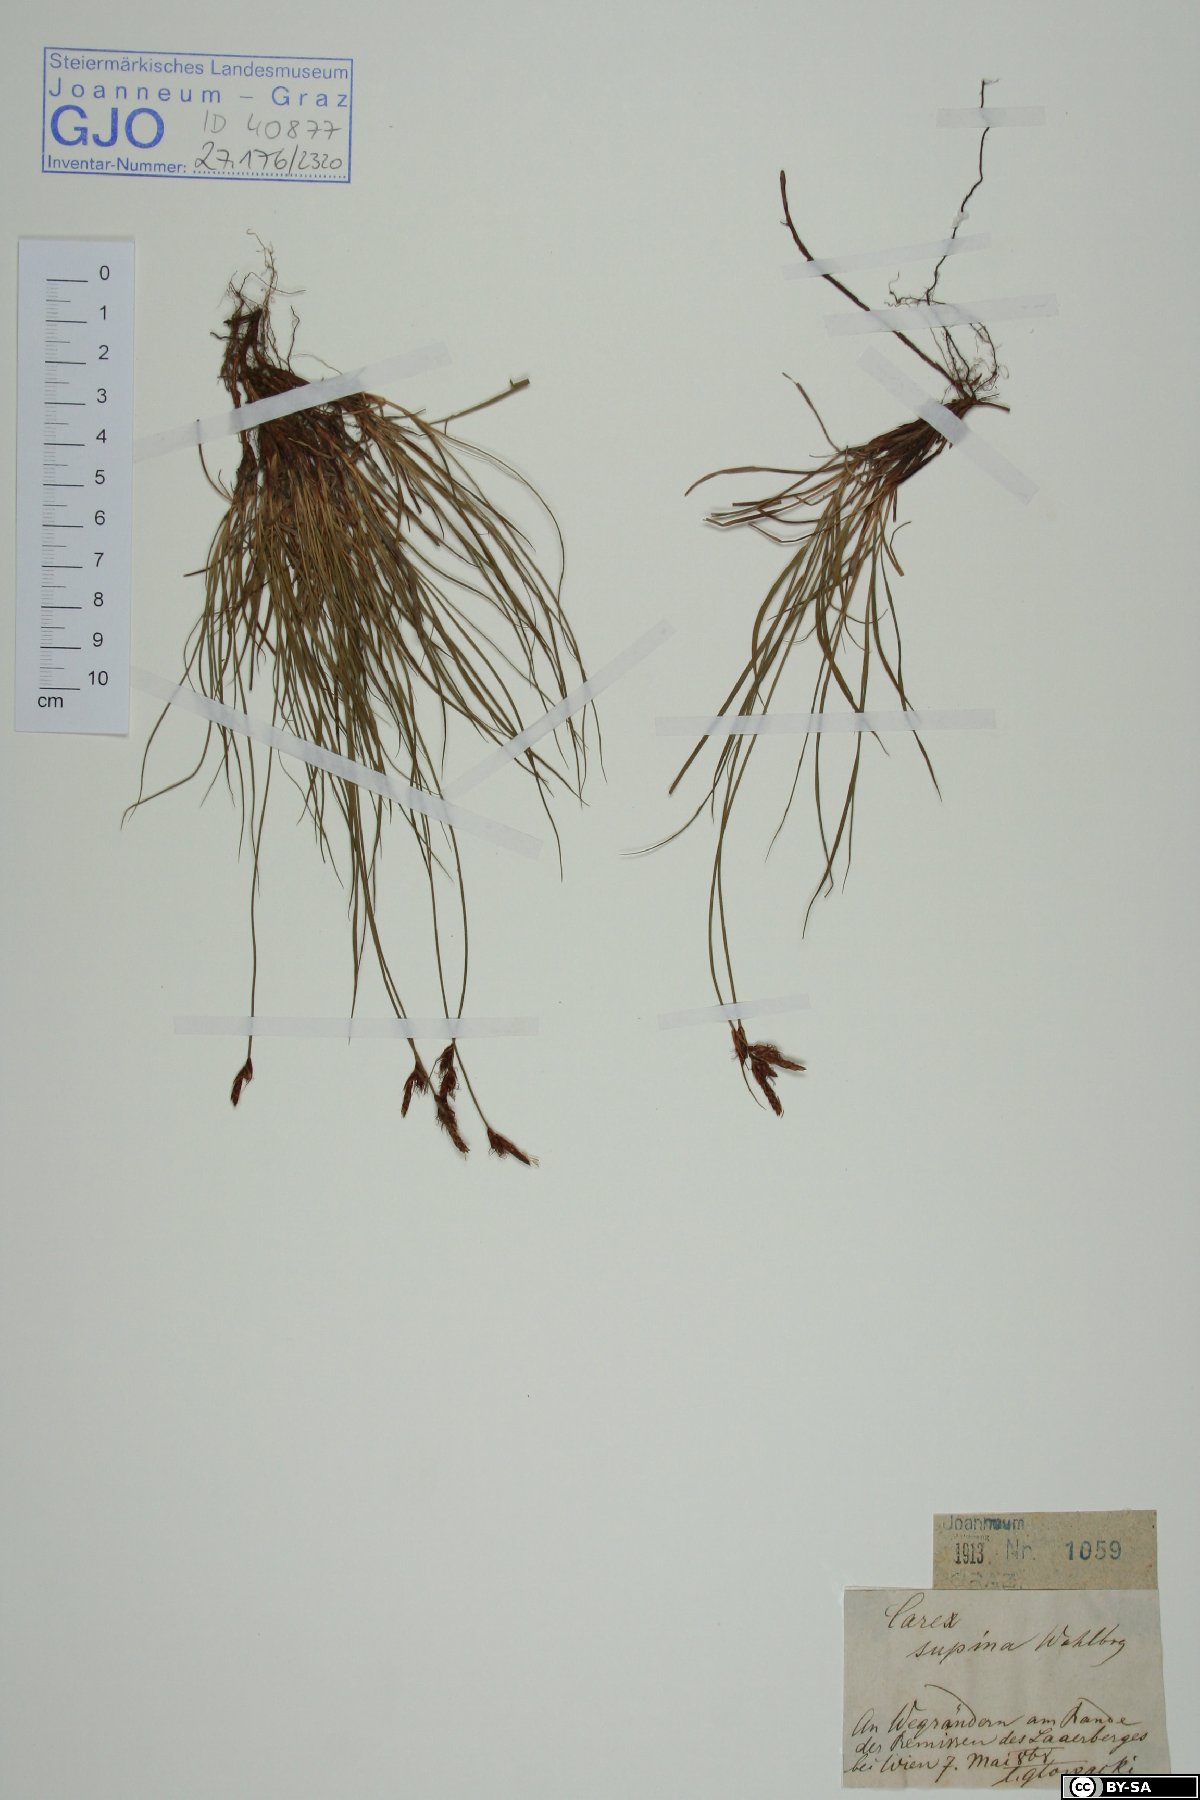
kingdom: Plantae
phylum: Tracheophyta
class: Liliopsida
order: Poales
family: Cyperaceae
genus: Carex
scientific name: Carex supina
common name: Lying-back sedge
